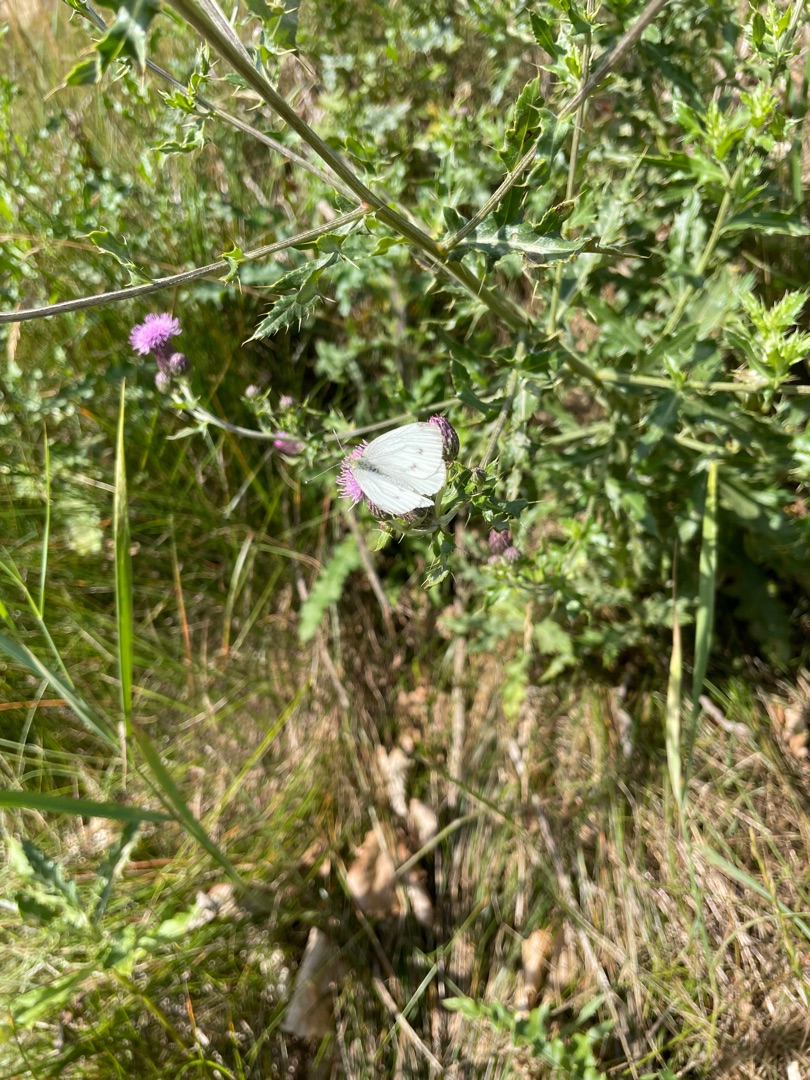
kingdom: Animalia
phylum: Arthropoda
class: Insecta
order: Lepidoptera
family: Pieridae
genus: Pieris
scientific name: Pieris napi
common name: Grønåret kålsommerfugl
